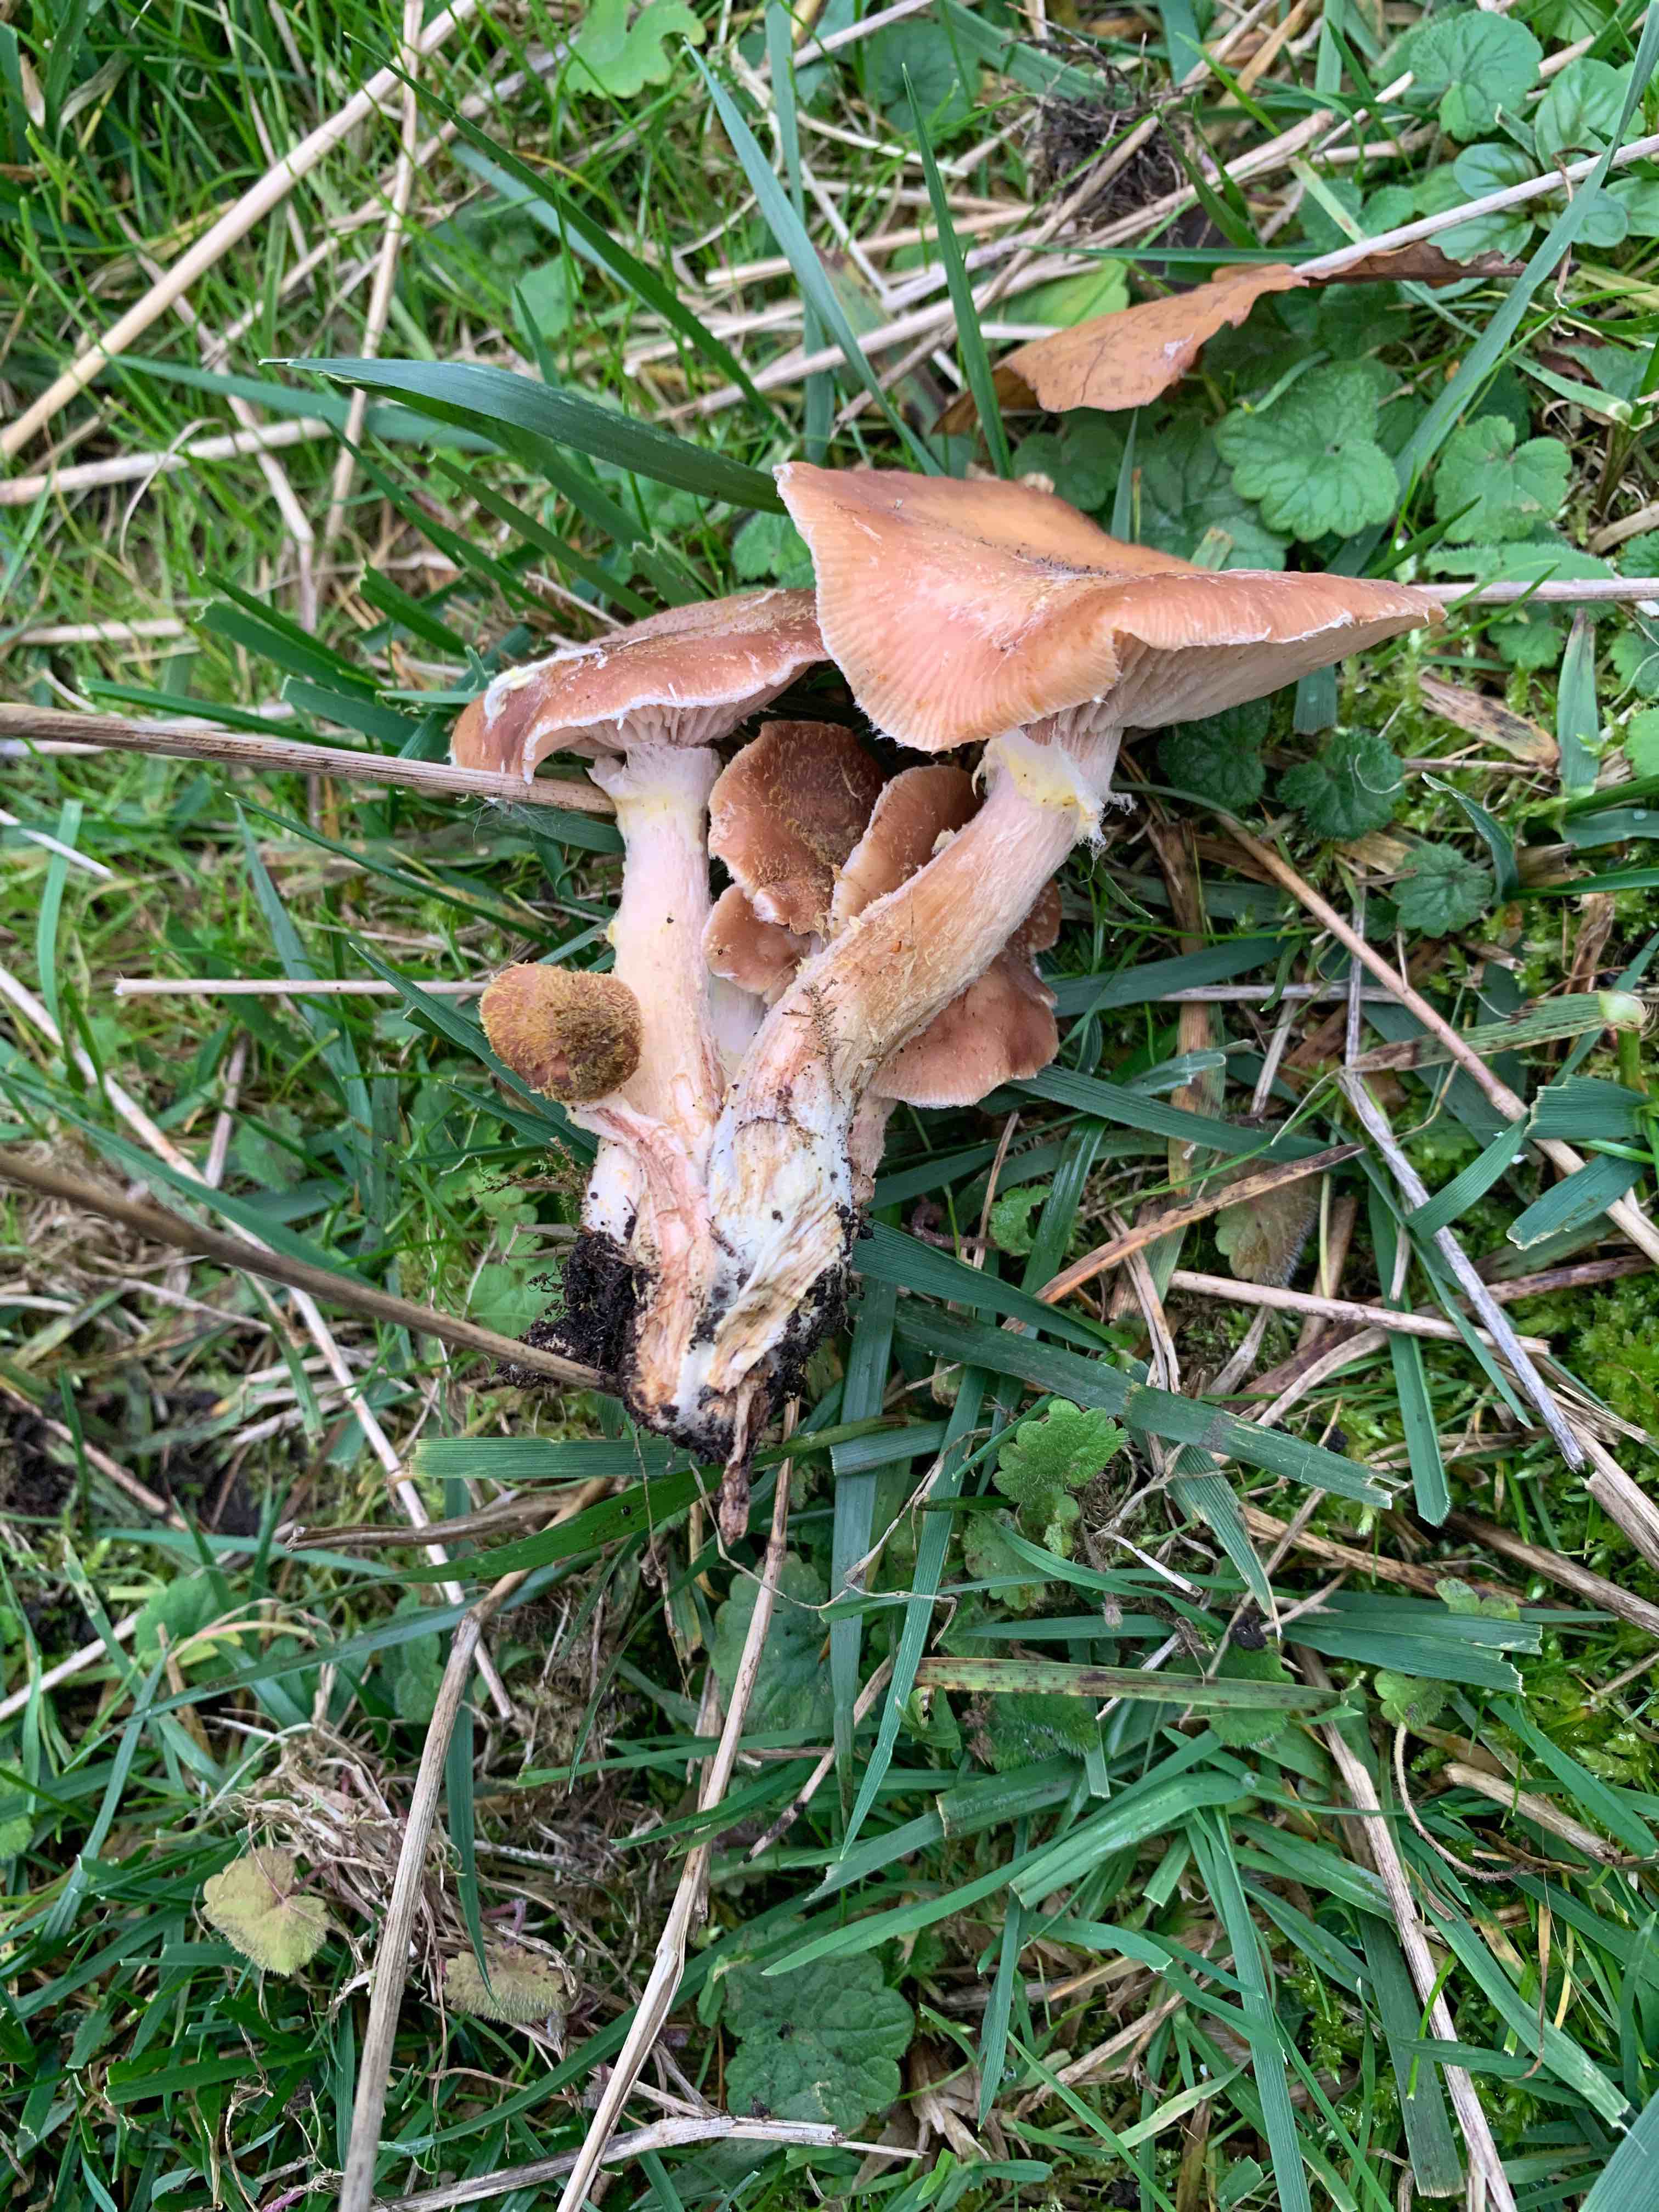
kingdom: Fungi
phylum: Basidiomycota
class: Agaricomycetes
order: Agaricales
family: Physalacriaceae
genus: Armillaria
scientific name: Armillaria lutea
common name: køllestokket honningsvamp
